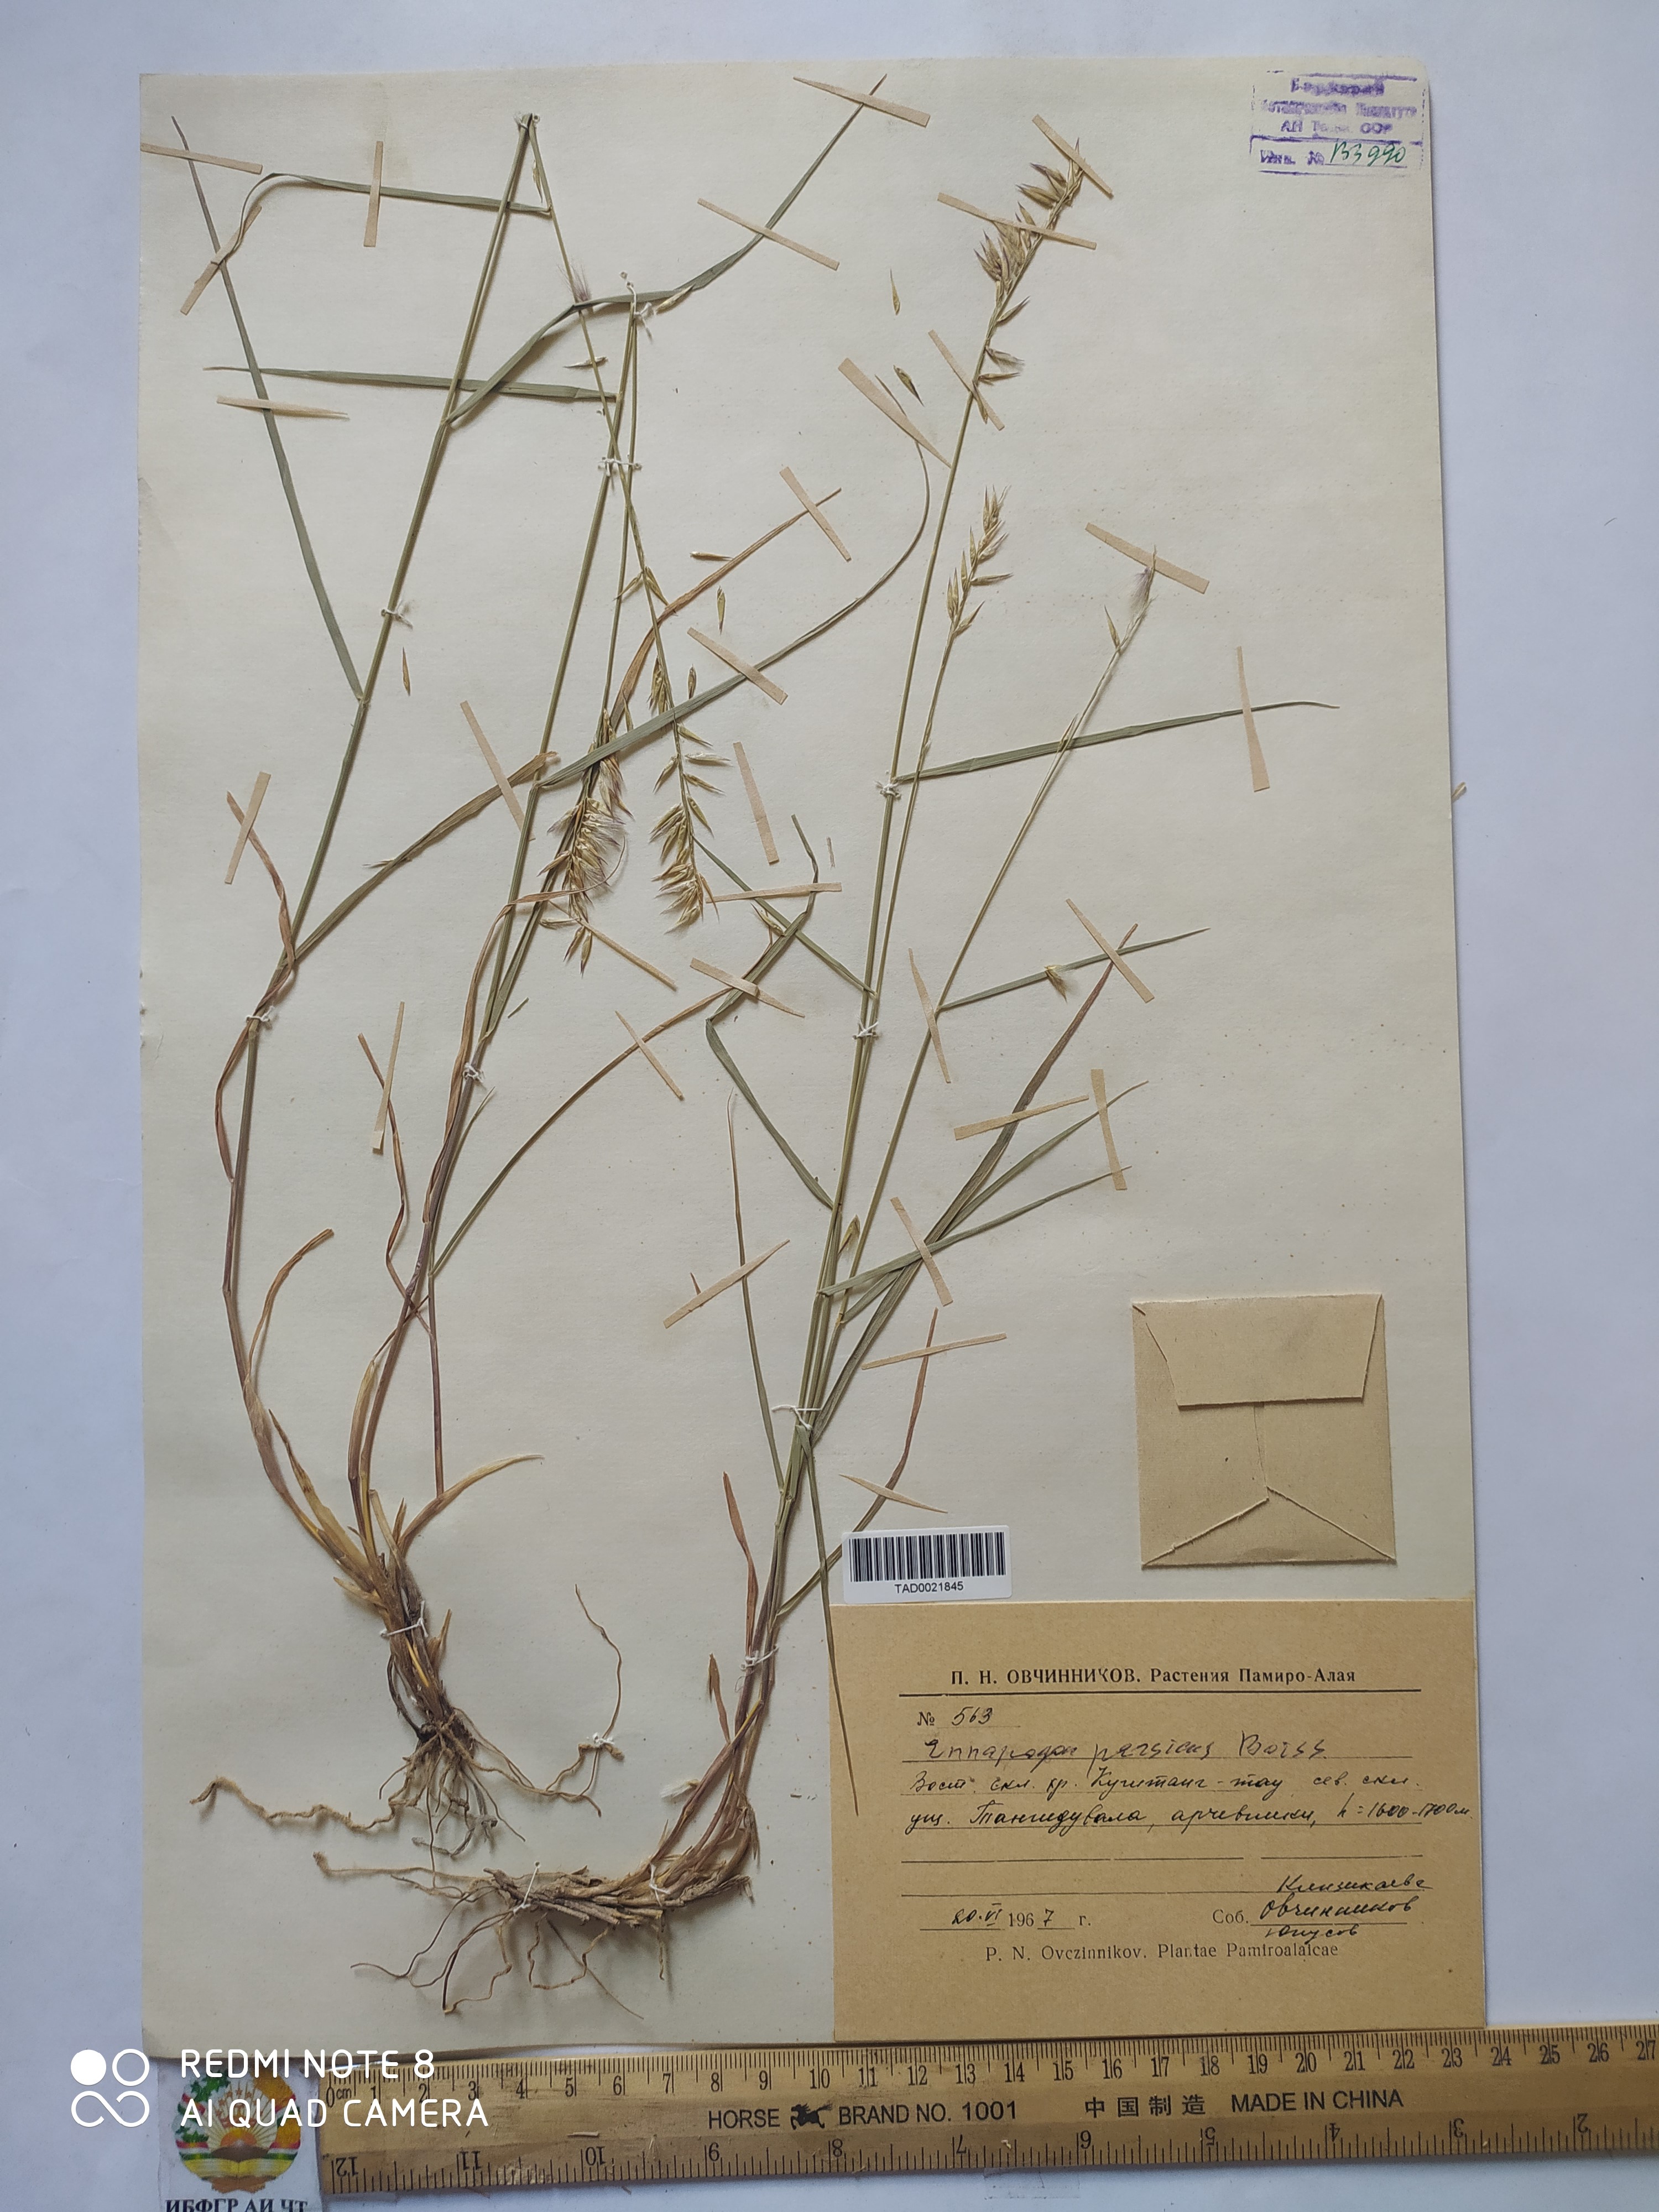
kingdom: Plantae
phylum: Tracheophyta
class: Liliopsida
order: Poales
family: Poaceae
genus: Enneapogon
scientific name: Enneapogon persicus
